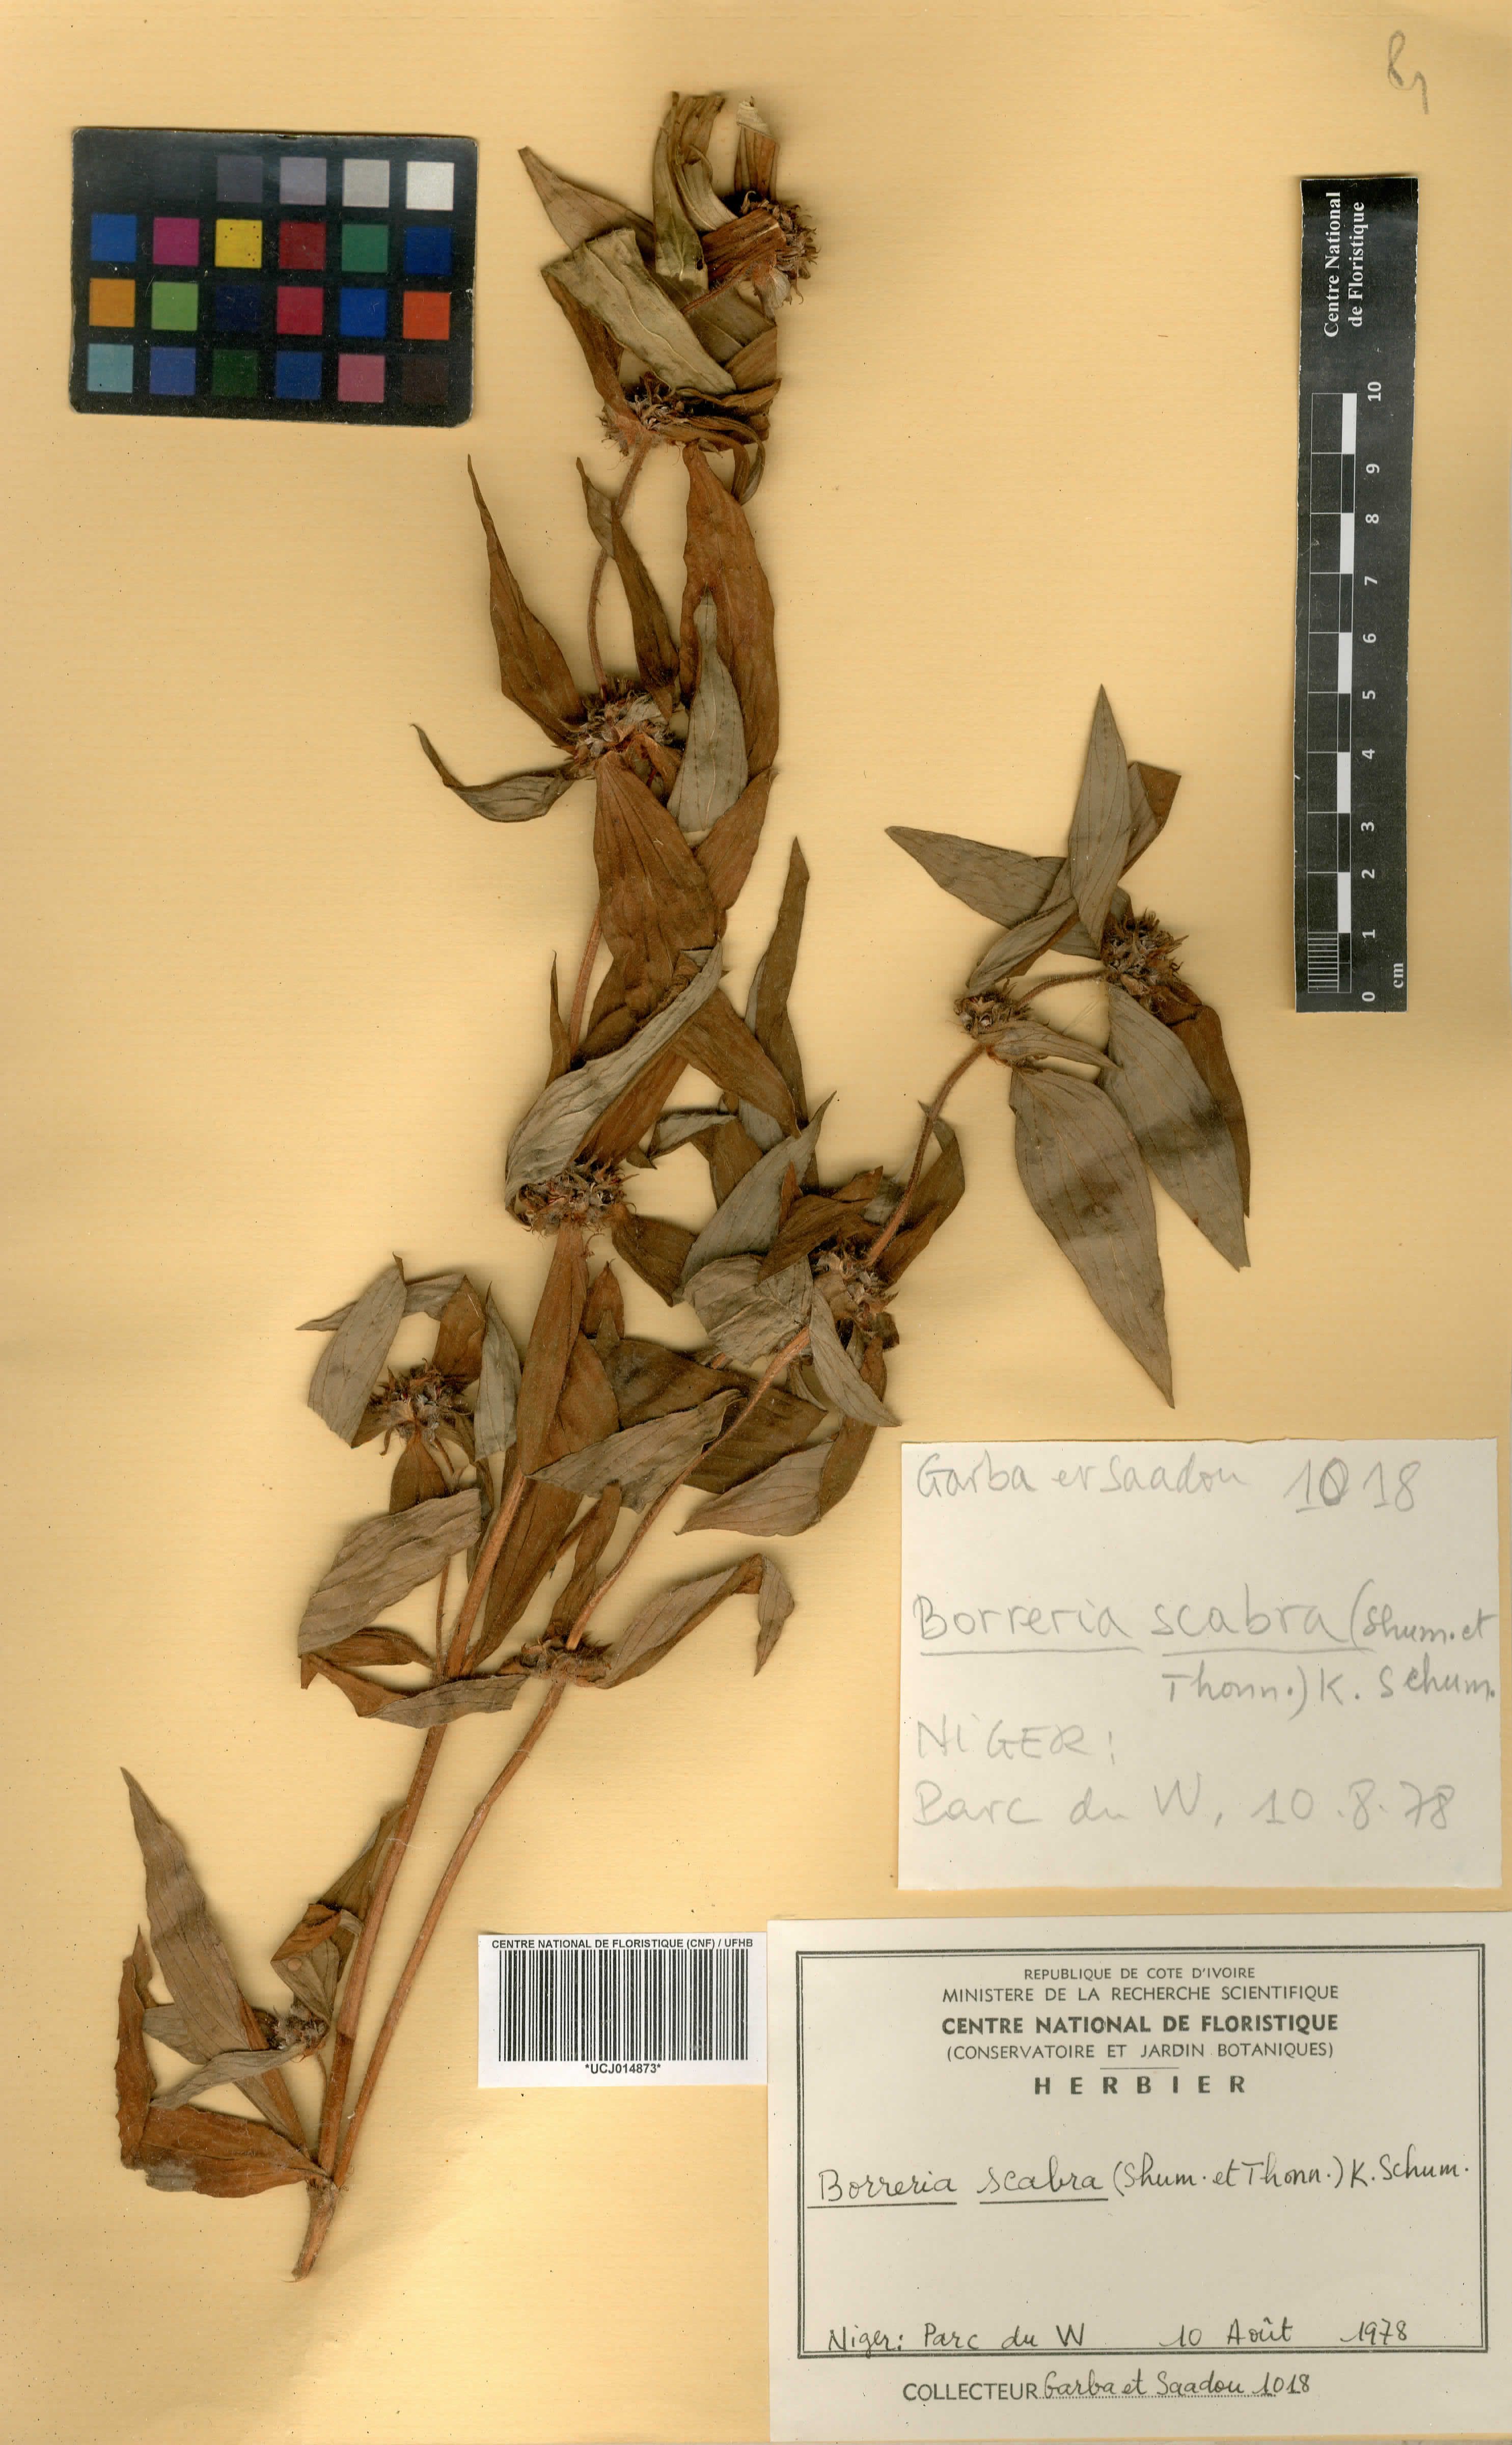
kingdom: Plantae
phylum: Tracheophyta
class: Magnoliopsida
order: Gentianales
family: Rubiaceae
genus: Spermacoce
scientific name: Spermacoce ruelliae
